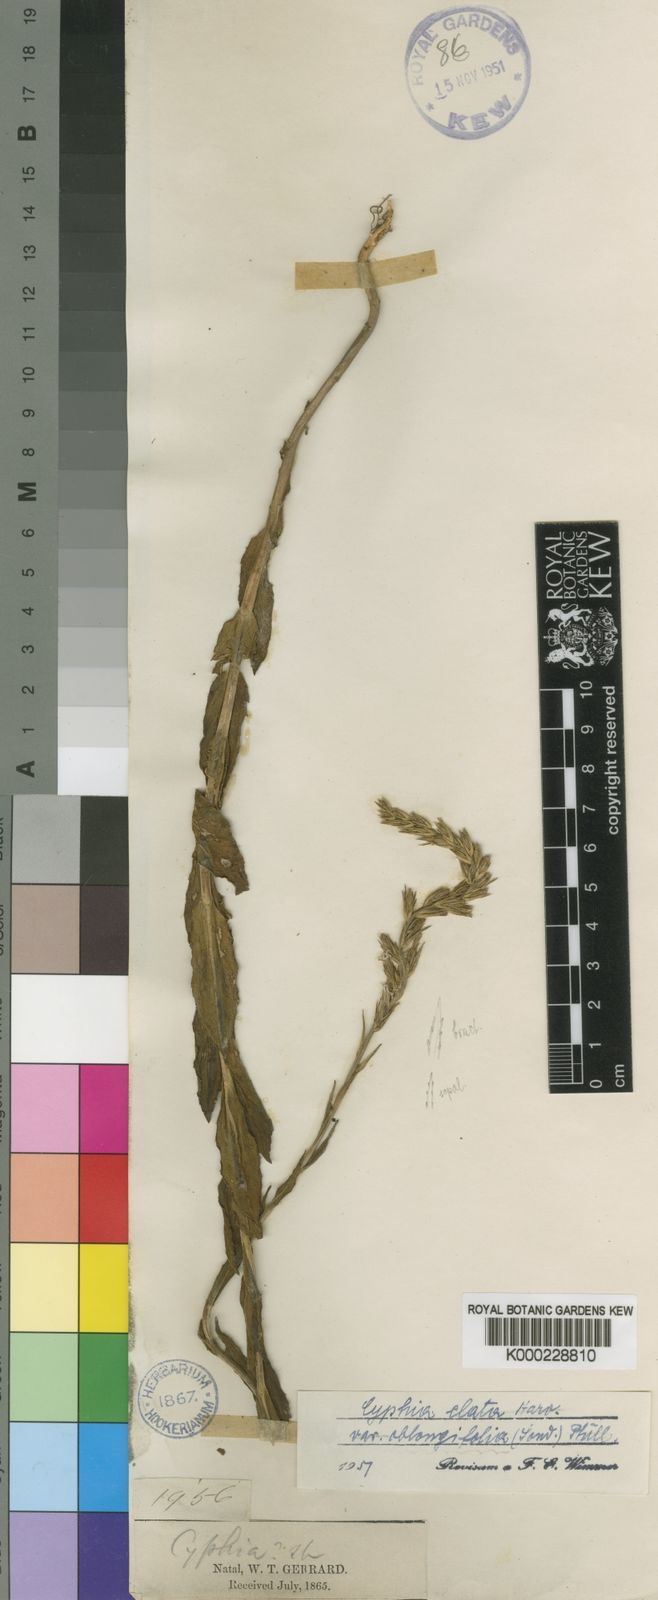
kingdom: Plantae
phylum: Tracheophyta
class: Magnoliopsida
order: Asterales
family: Campanulaceae
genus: Cyphia
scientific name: Cyphia elata
